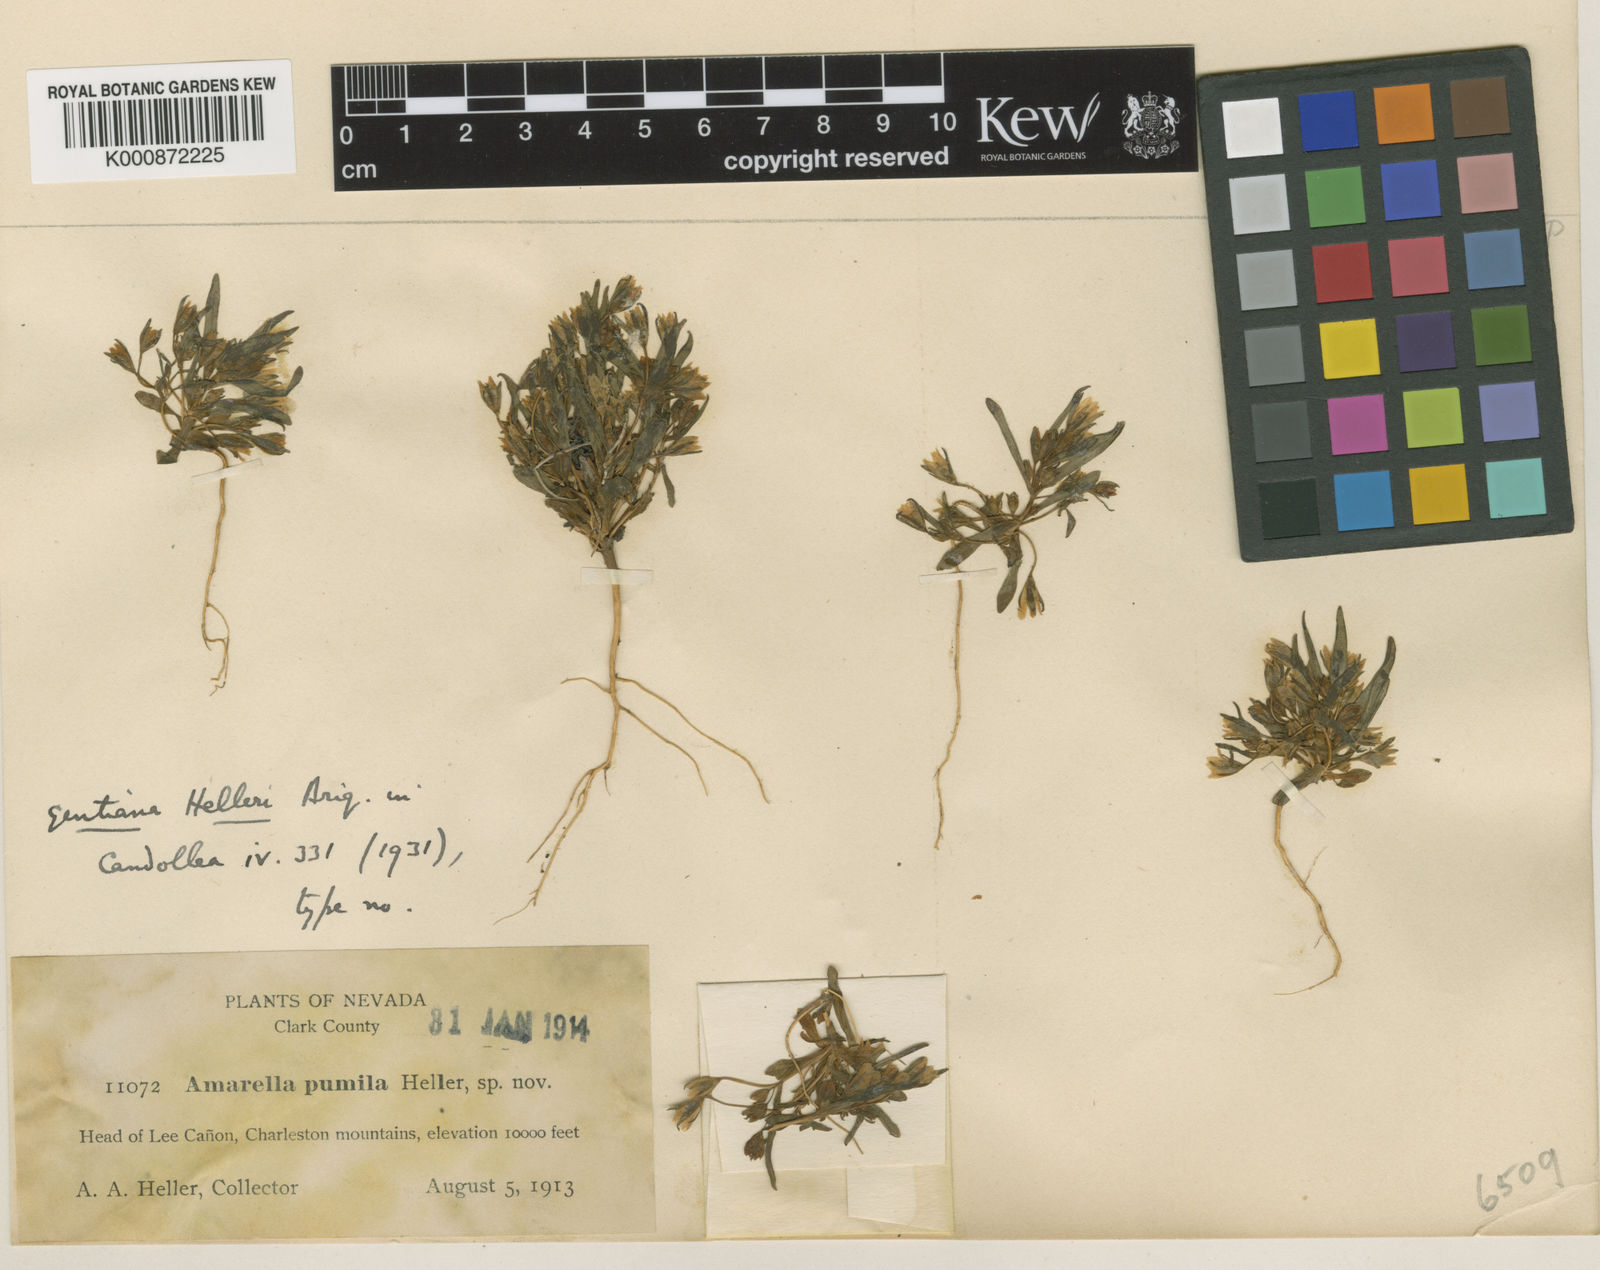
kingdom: Plantae
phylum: Tracheophyta
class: Magnoliopsida
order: Gentianales
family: Gentianaceae
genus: Gentianella
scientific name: Gentianella tortuosa
